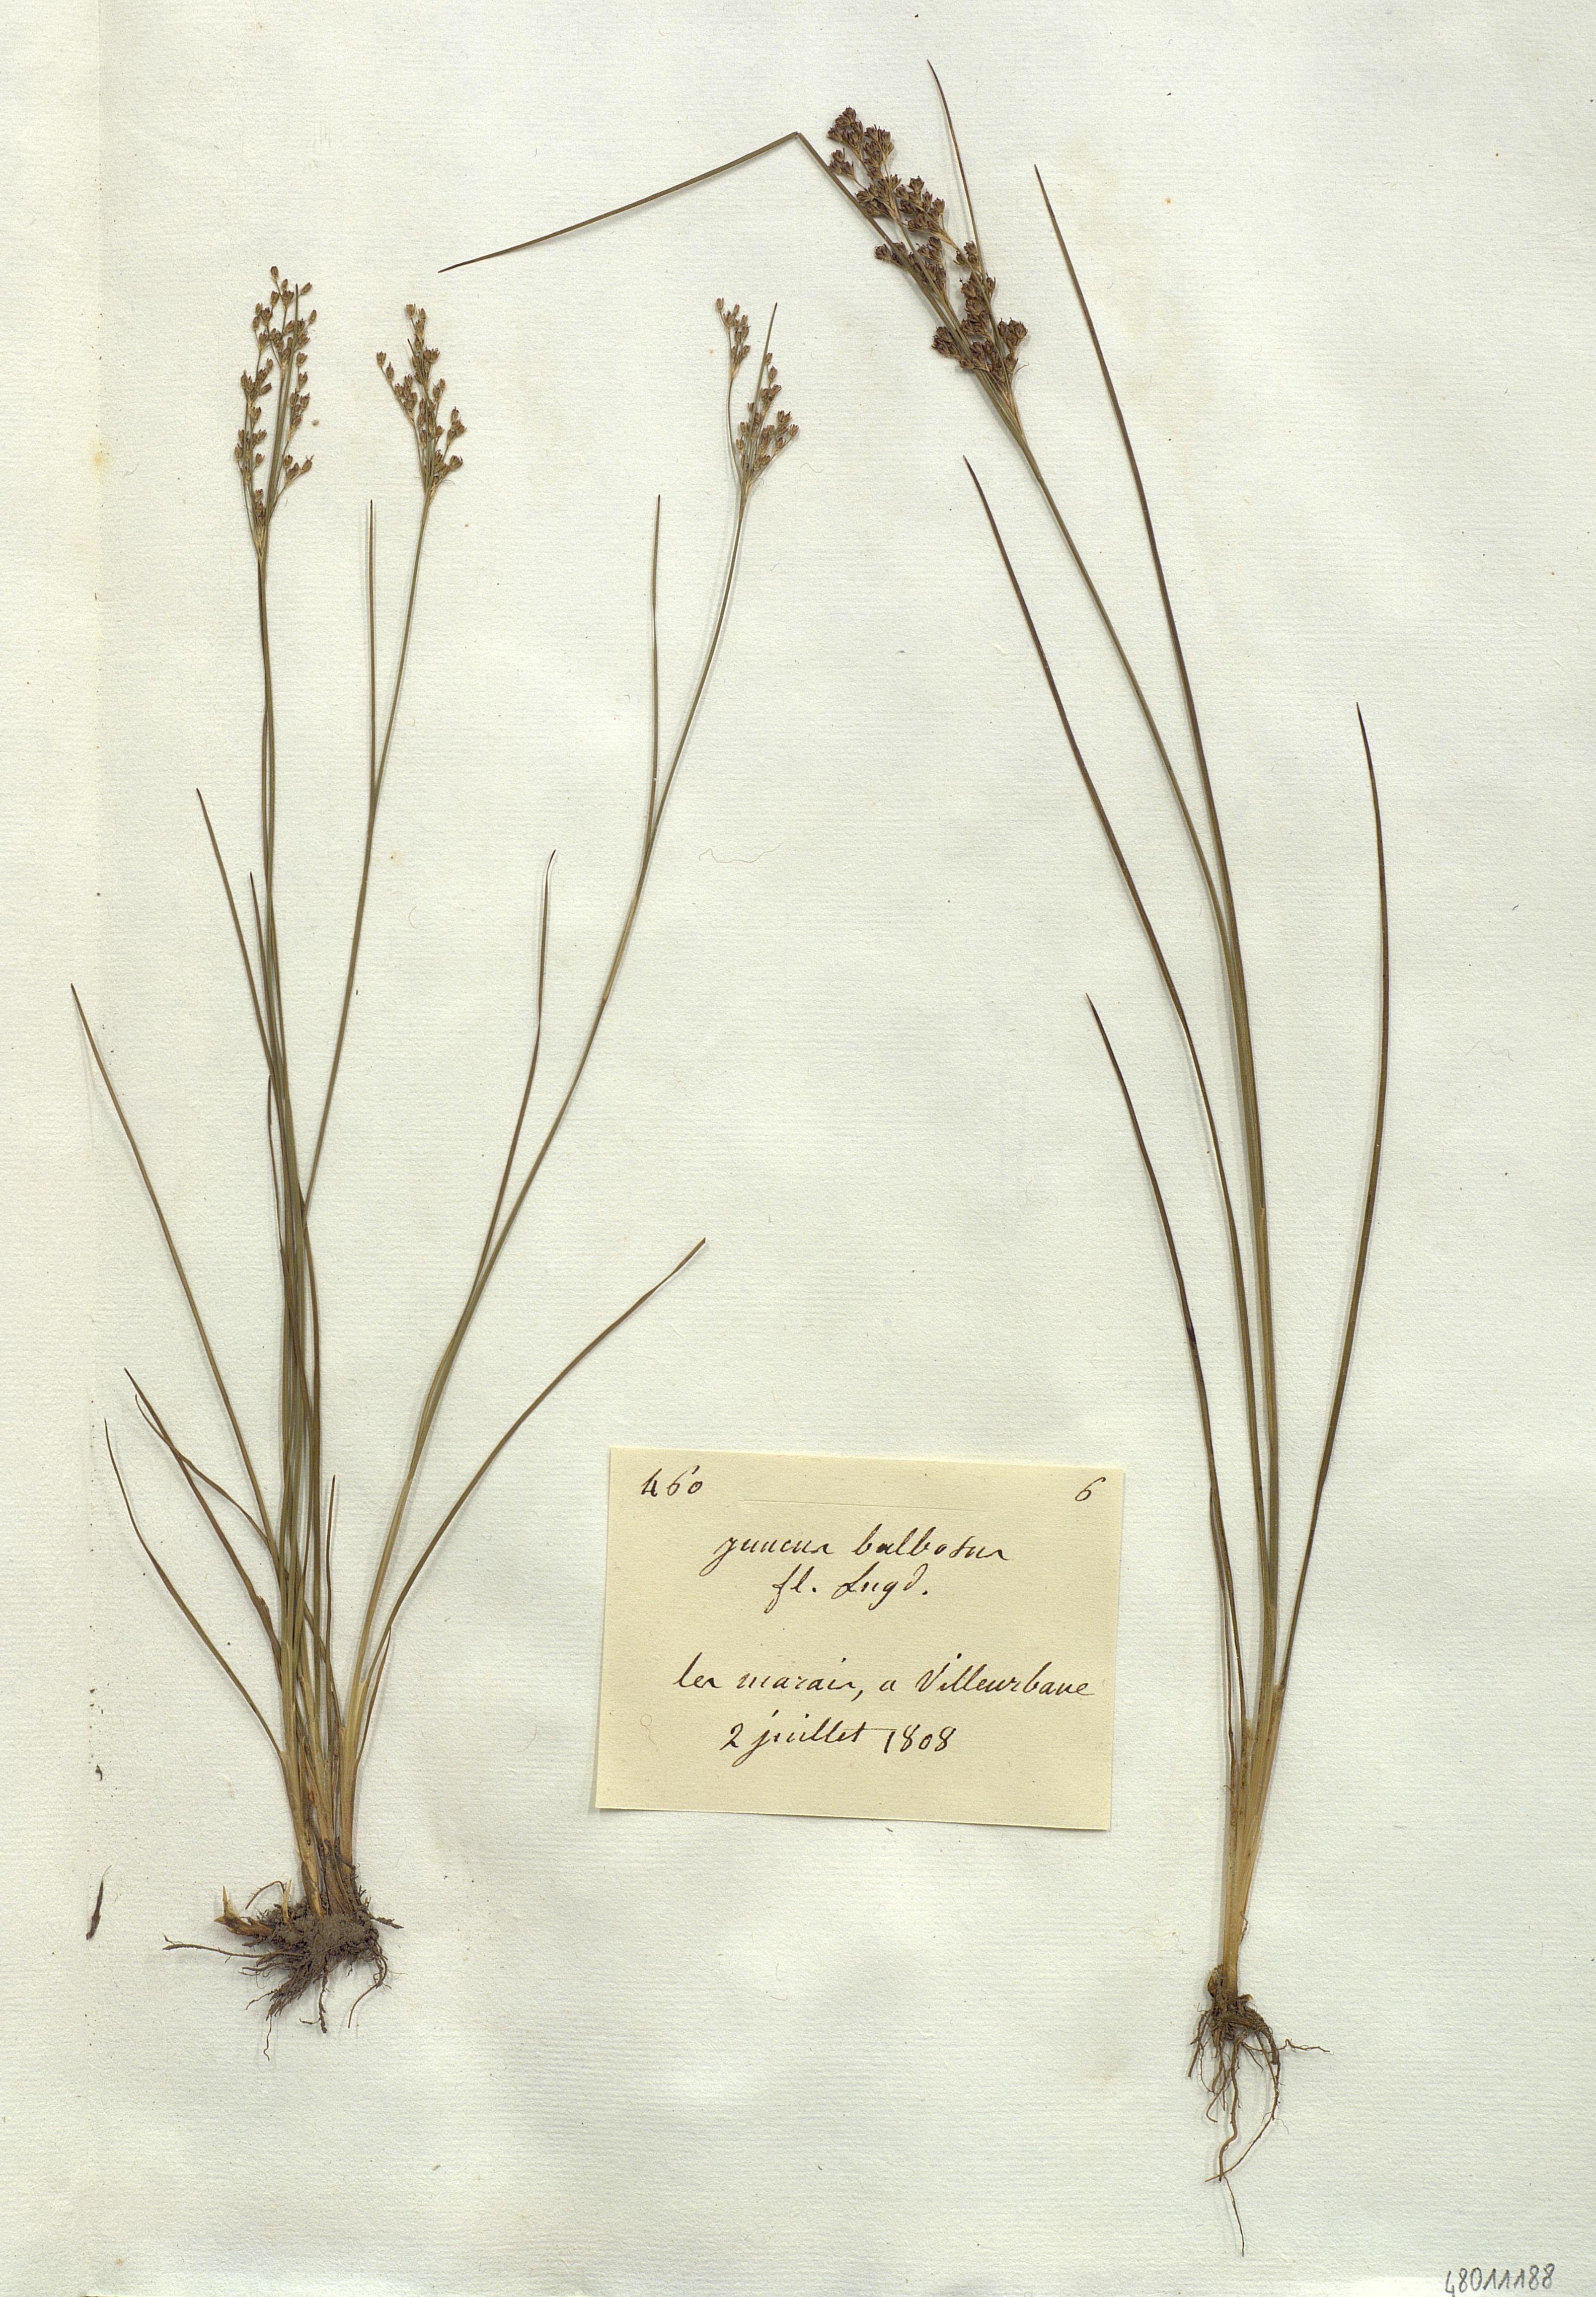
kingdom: Plantae
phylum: Tracheophyta
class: Liliopsida
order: Poales
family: Juncaceae
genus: Juncus
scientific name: Juncus bulbosus
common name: Bulbous rush
